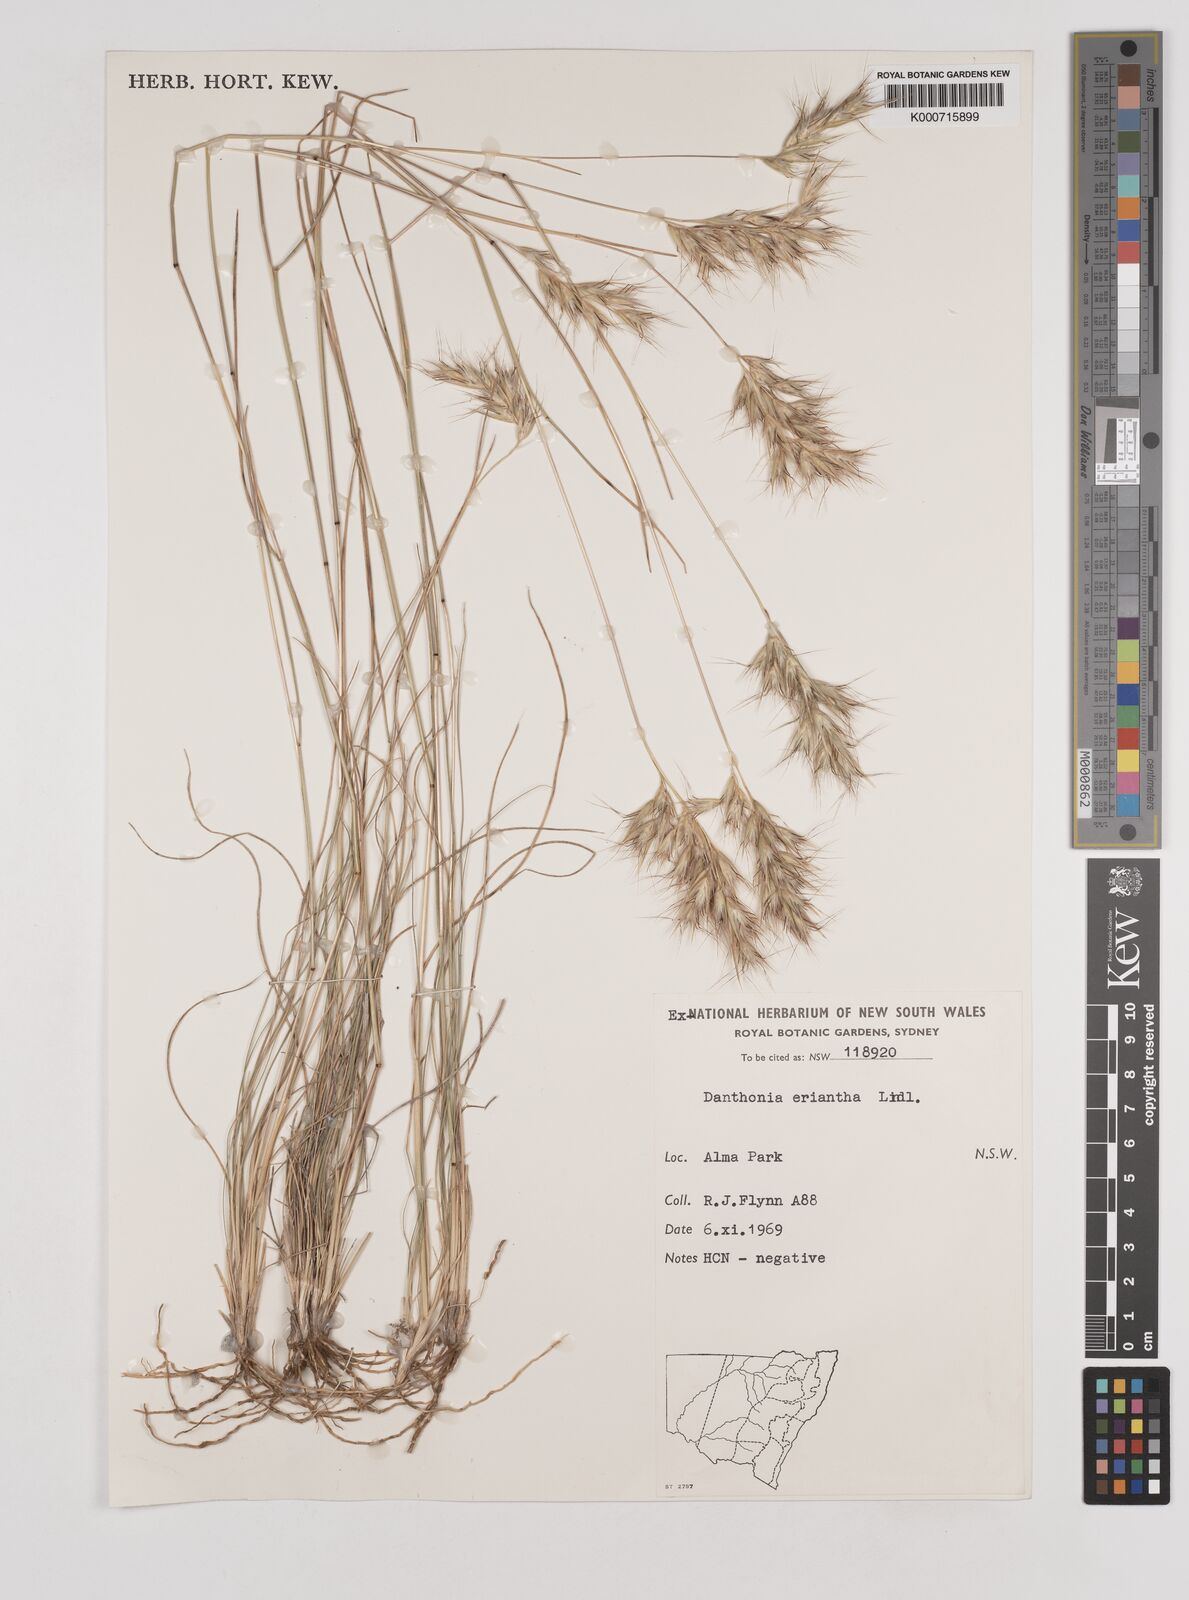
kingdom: Plantae
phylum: Tracheophyta
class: Liliopsida
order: Poales
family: Poaceae
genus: Rytidosperma
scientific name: Rytidosperma erianthum
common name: Hill wallaby grass
